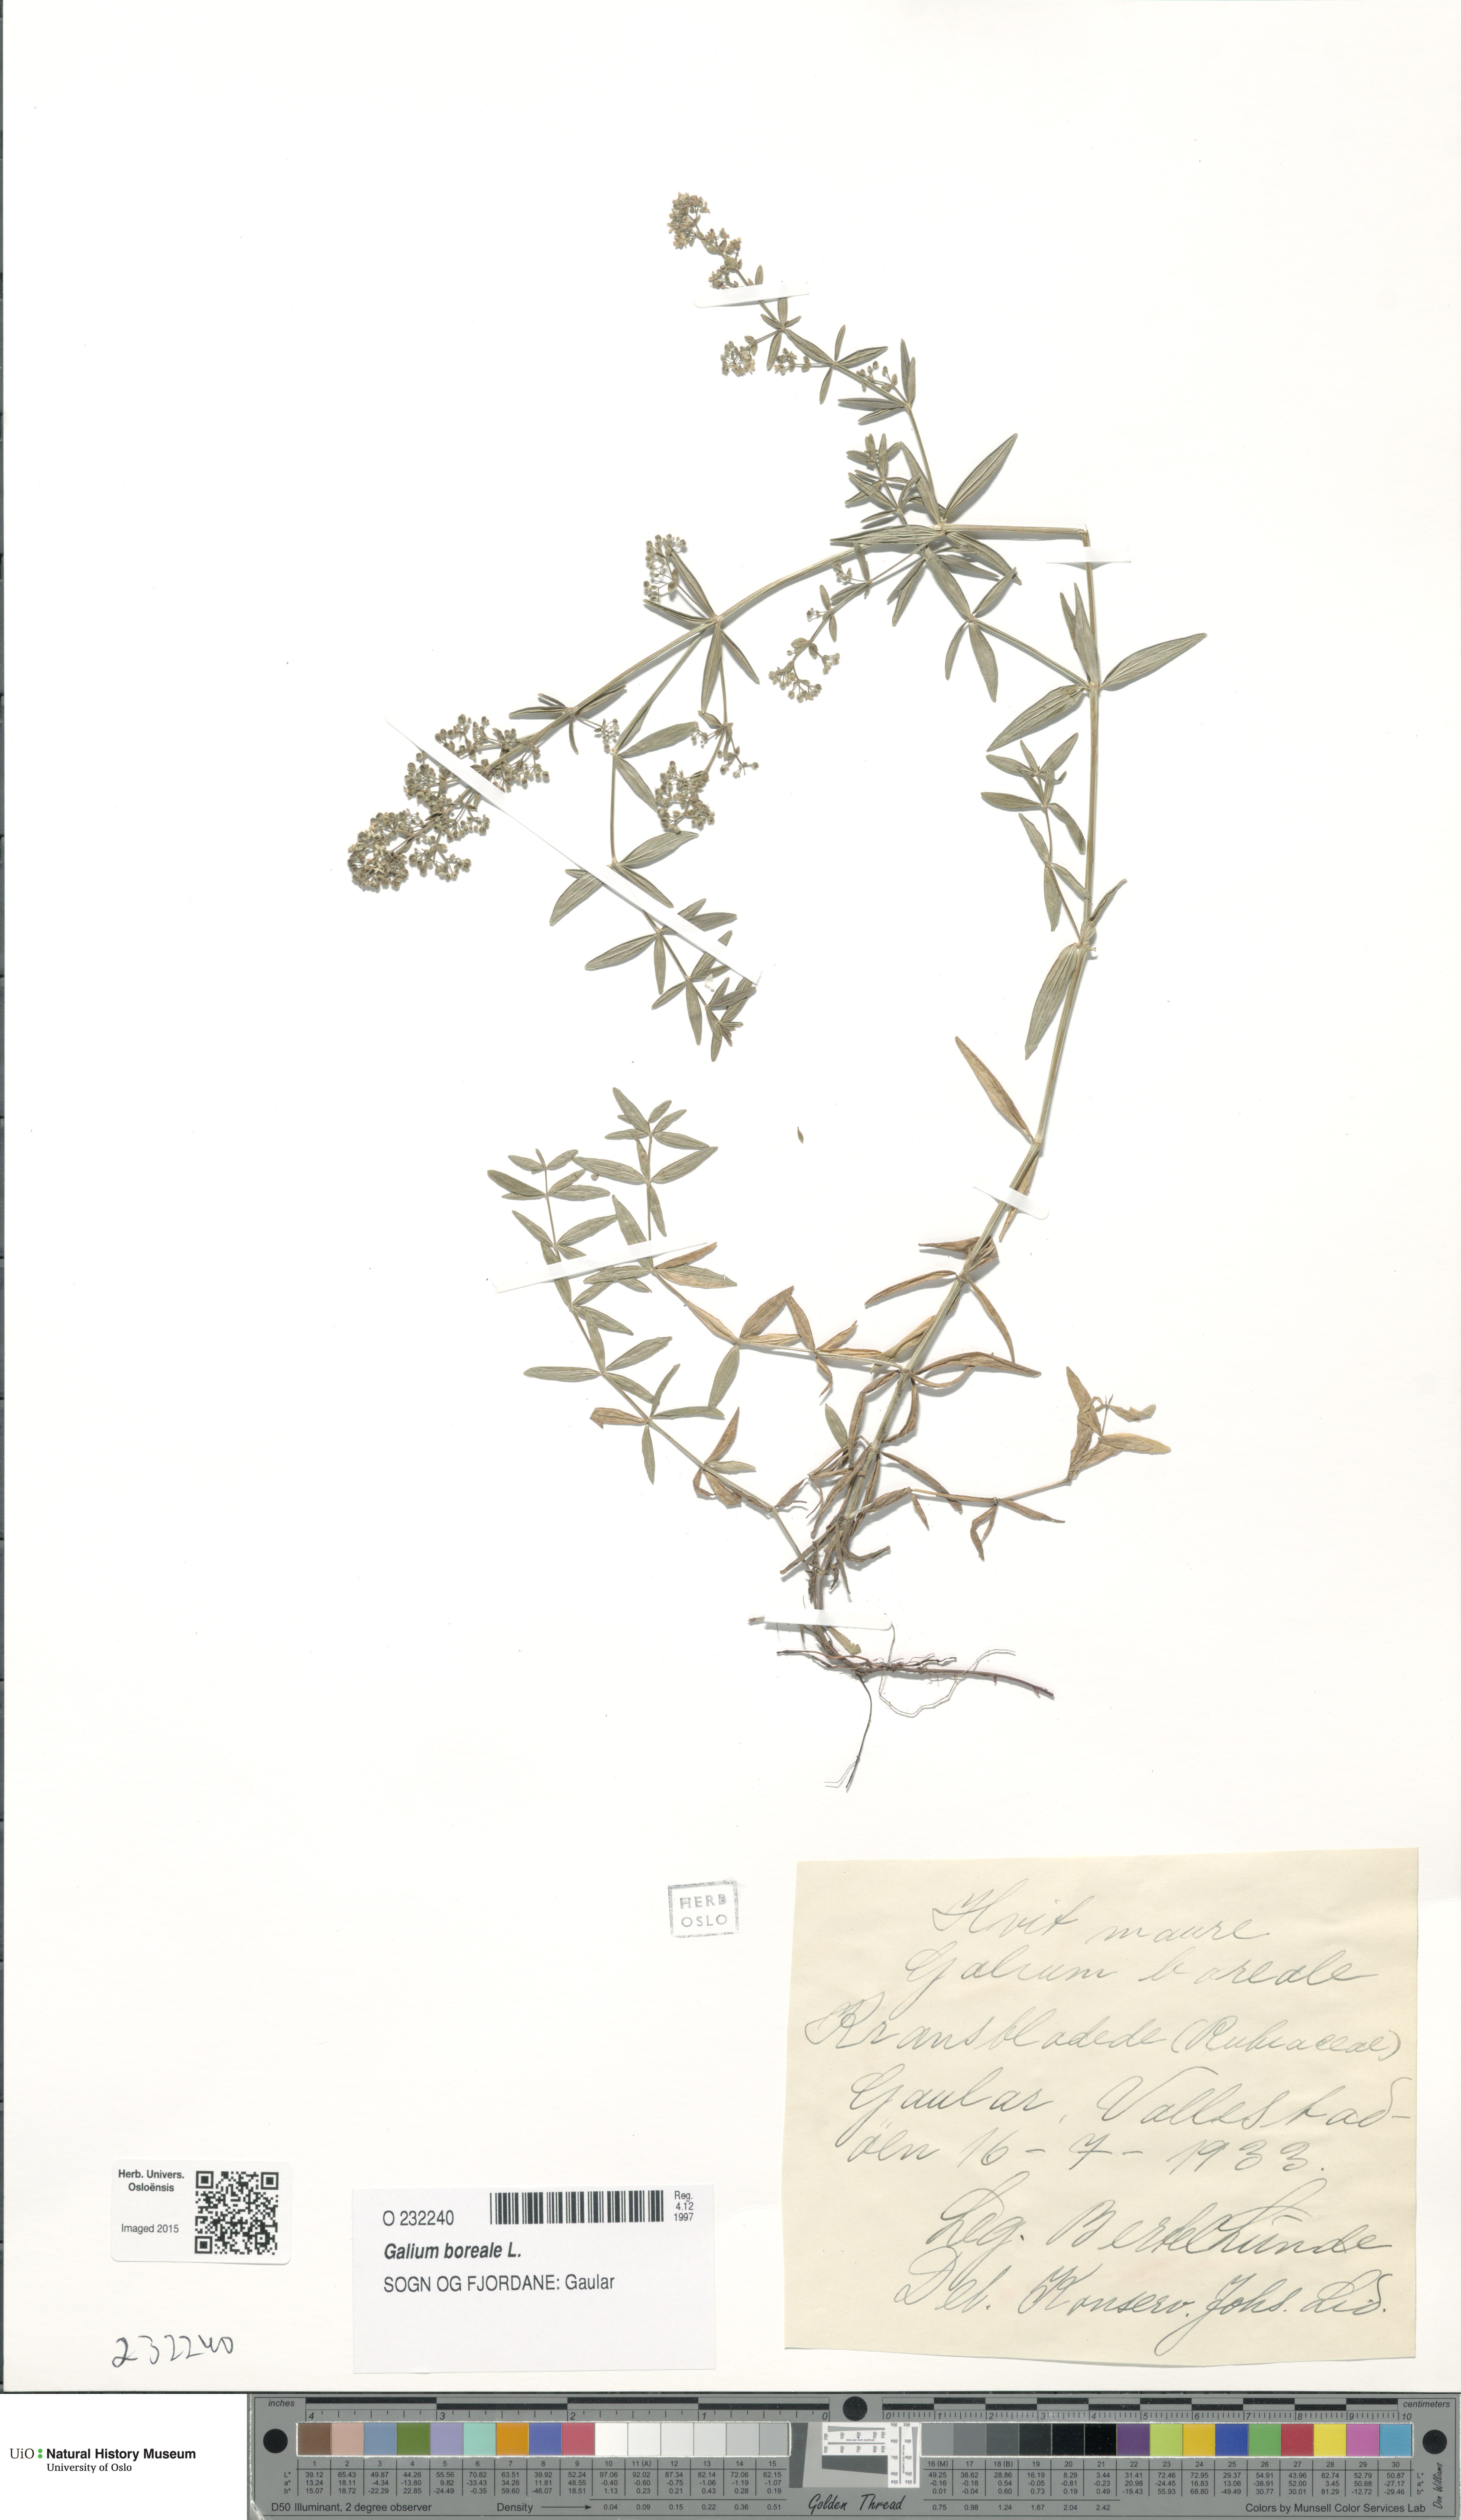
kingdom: Plantae
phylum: Tracheophyta
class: Magnoliopsida
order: Gentianales
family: Rubiaceae
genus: Galium
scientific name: Galium boreale
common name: Northern bedstraw
